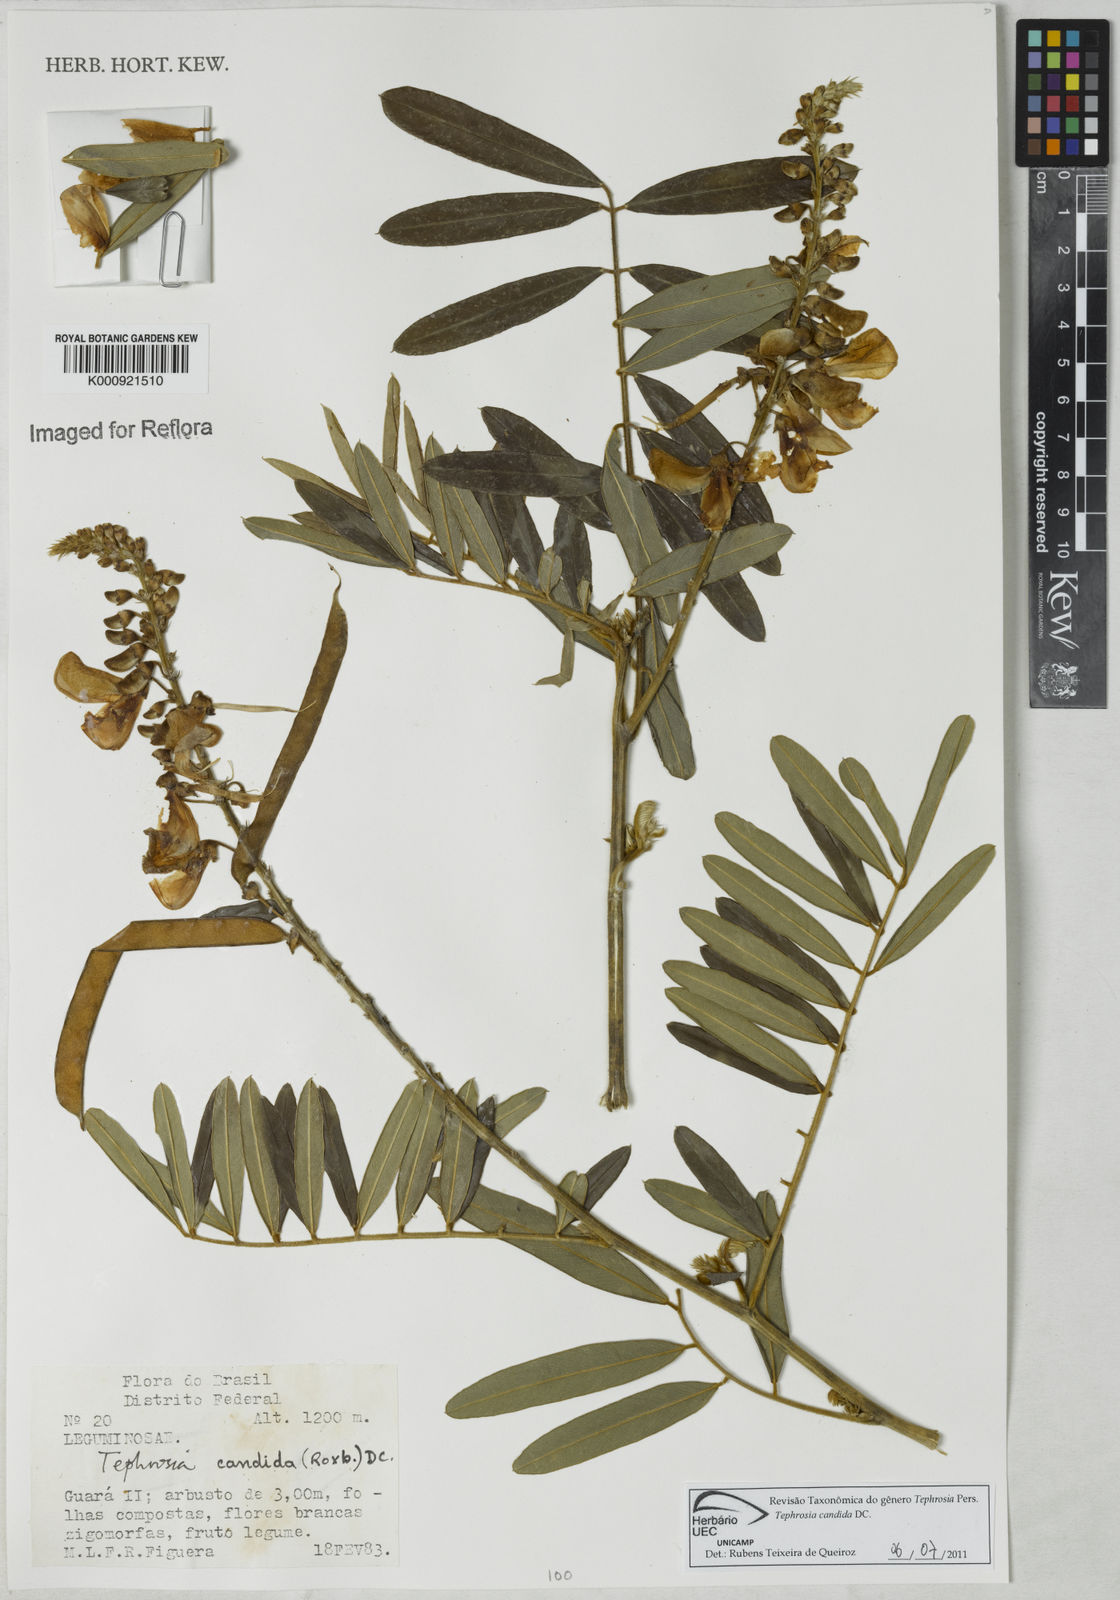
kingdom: Plantae
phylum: Tracheophyta
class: Magnoliopsida
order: Fabales
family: Fabaceae
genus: Tephrosia
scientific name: Tephrosia candida
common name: White tephrosia
